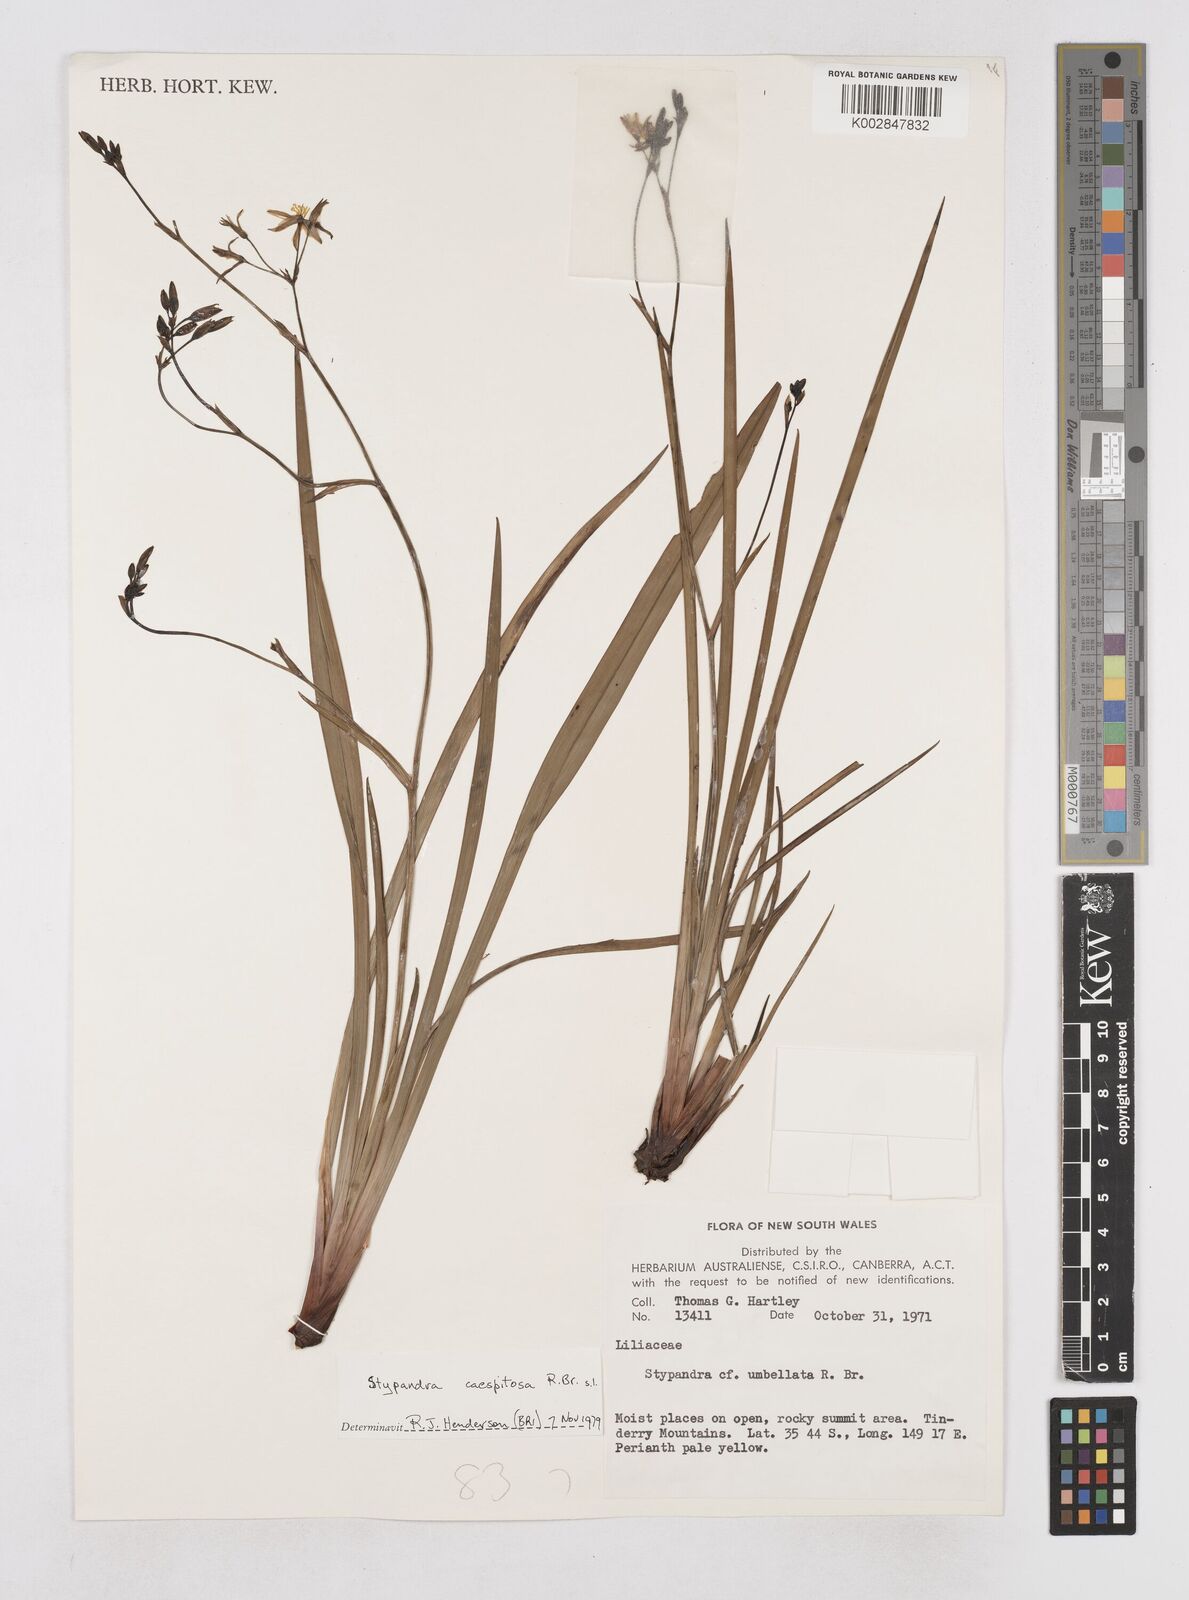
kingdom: Plantae
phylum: Tracheophyta
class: Liliopsida
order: Asparagales
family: Asphodelaceae
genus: Thelionema
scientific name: Thelionema umbellatum
